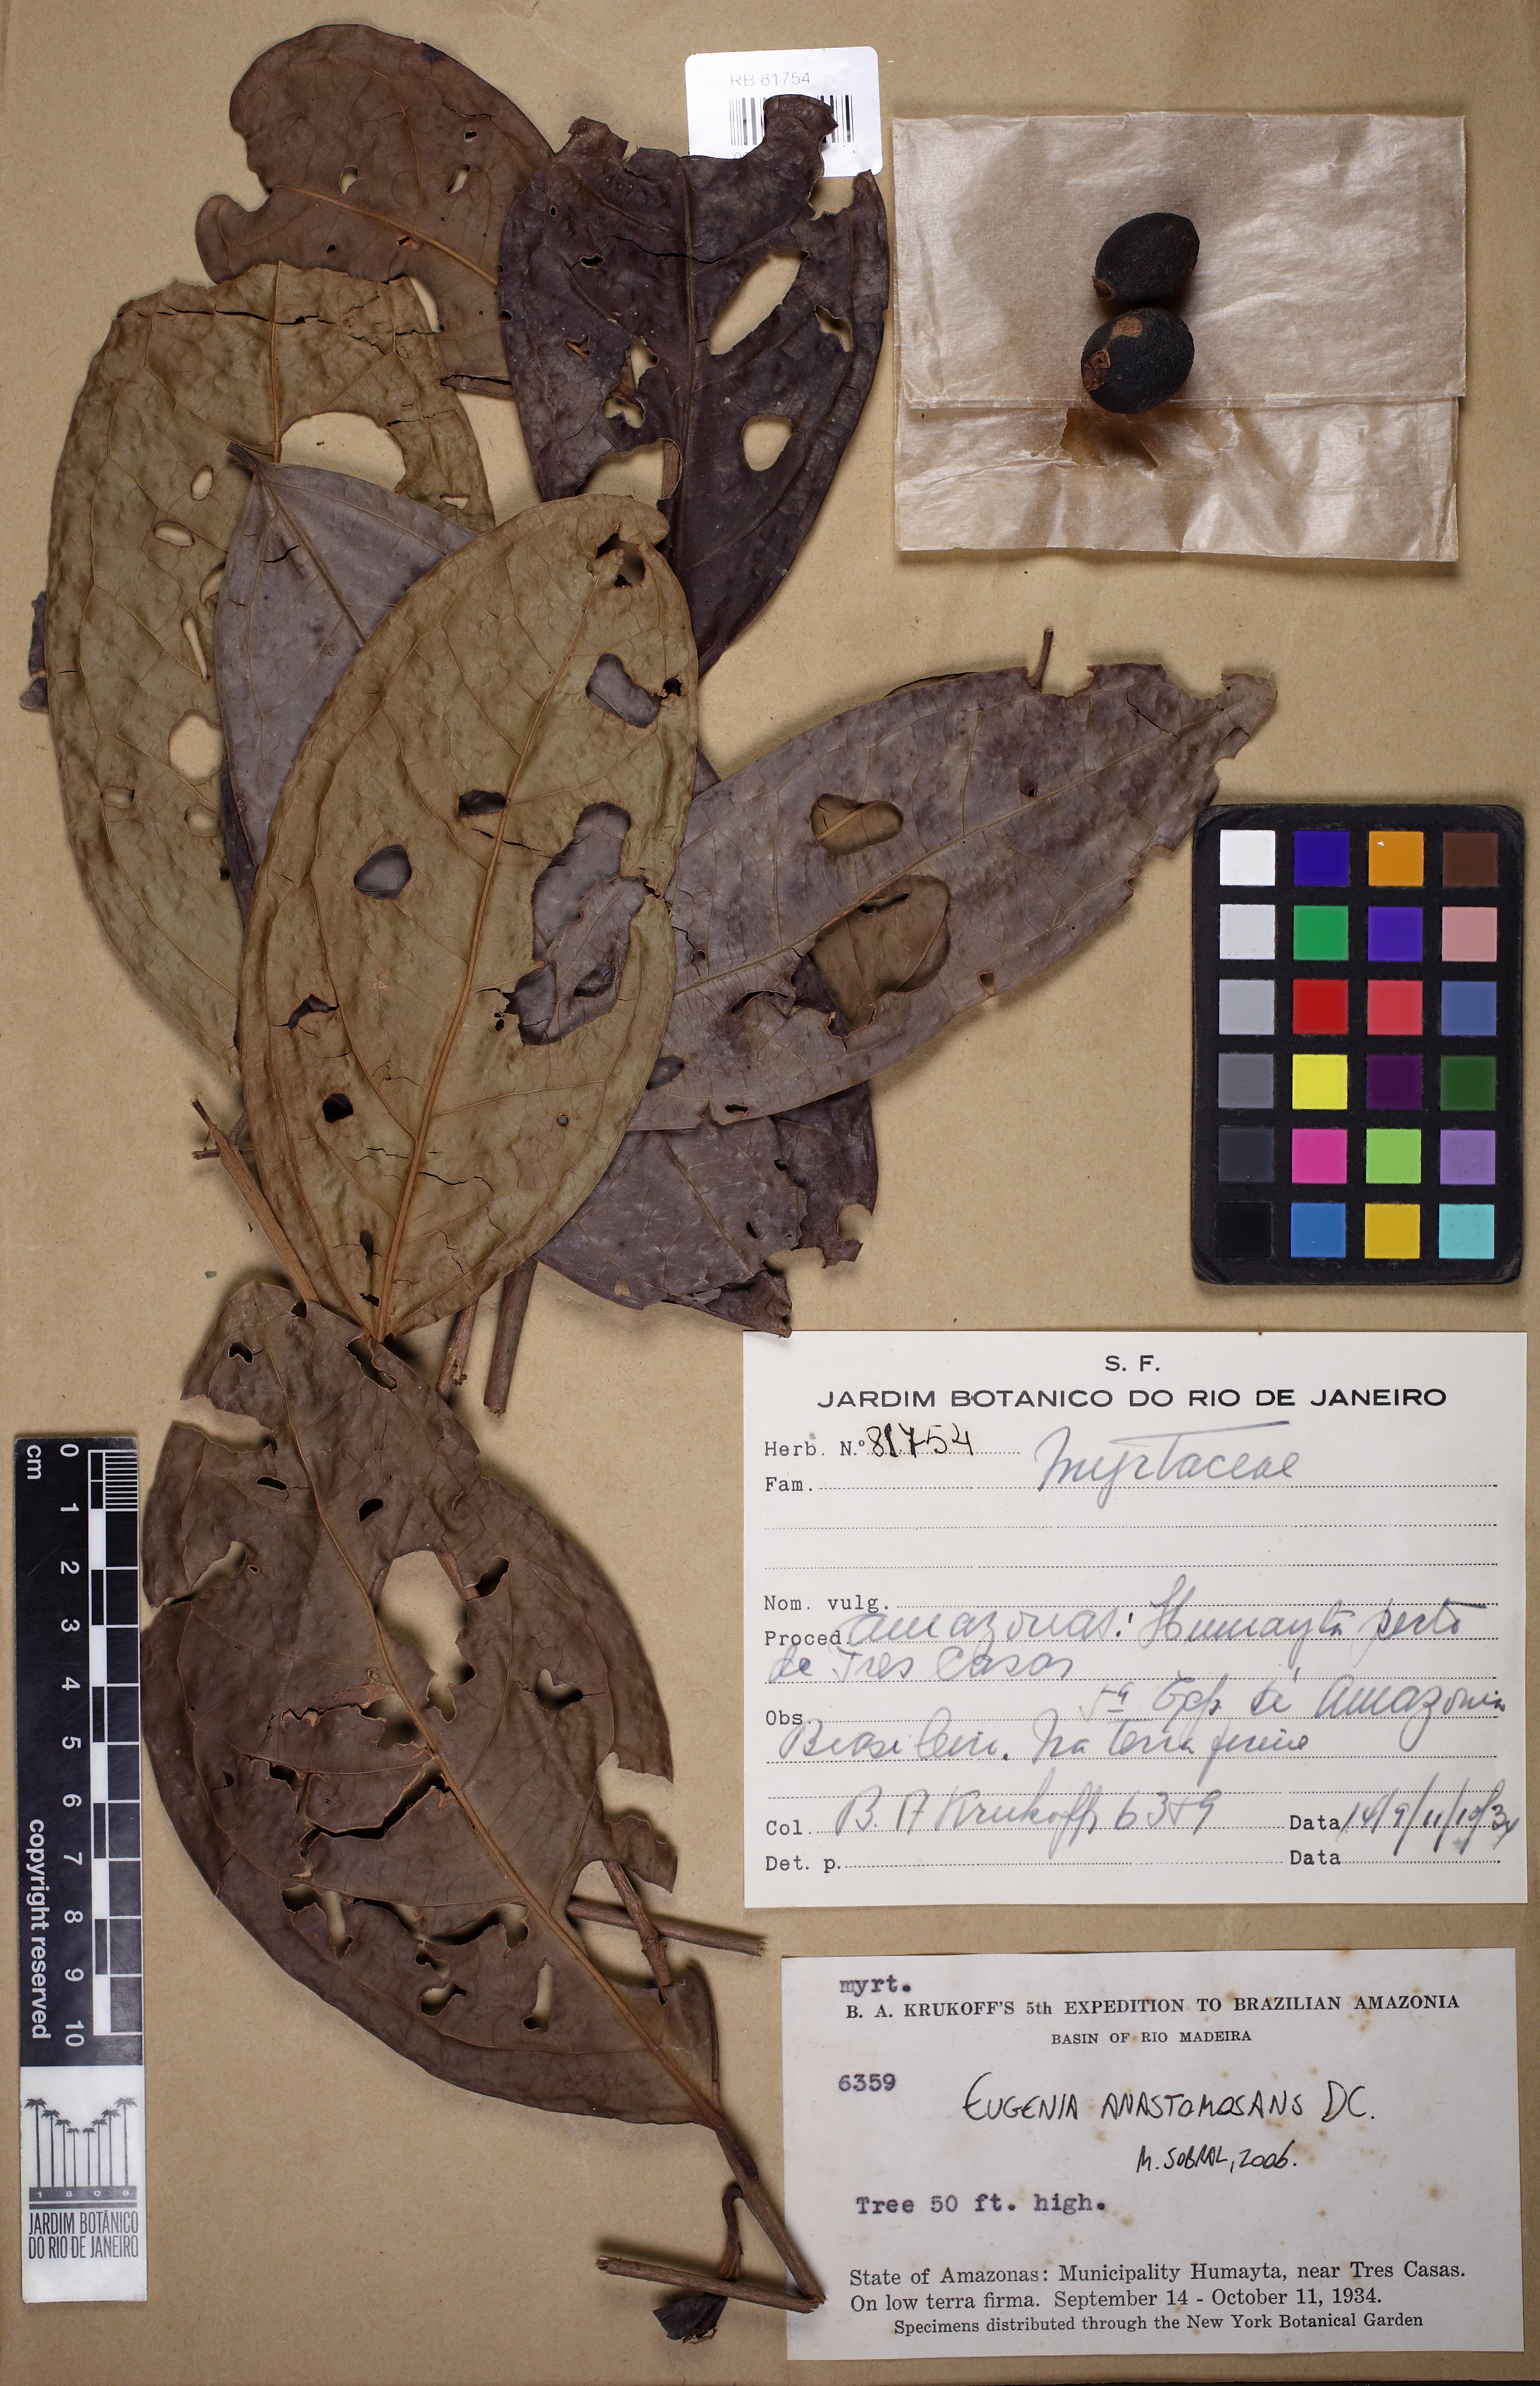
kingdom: Plantae
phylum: Tracheophyta
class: Magnoliopsida
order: Myrtales
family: Myrtaceae
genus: Eugenia
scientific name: Eugenia anastomosans
